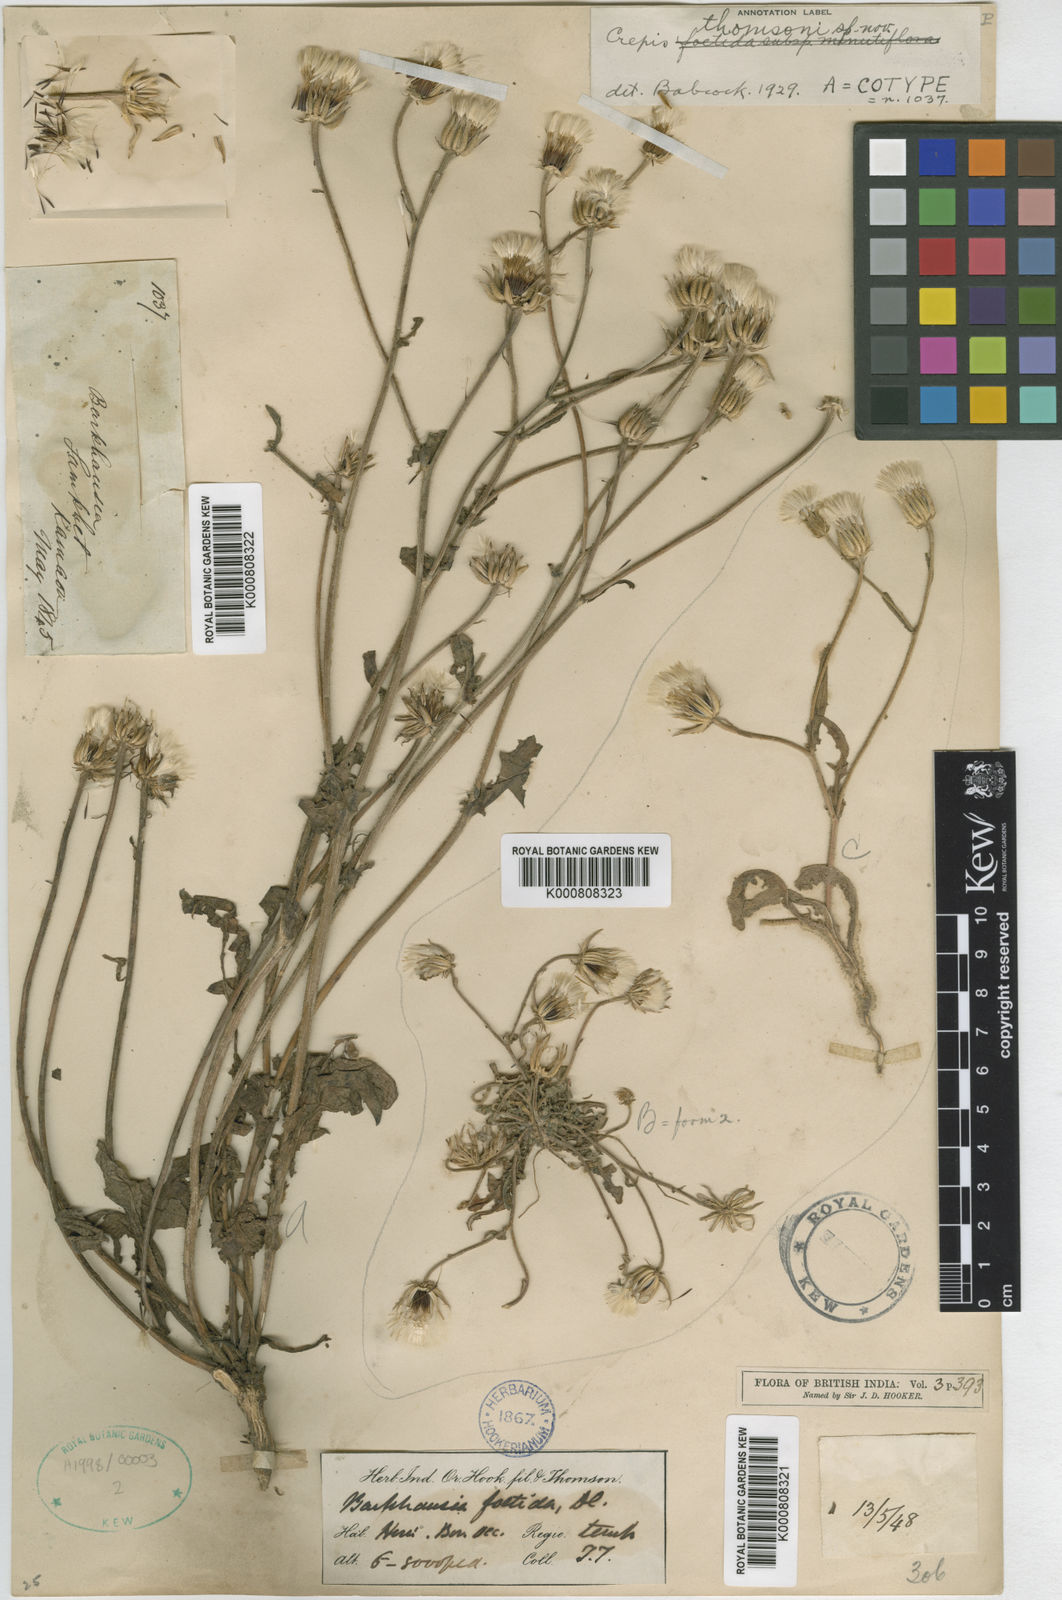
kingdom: Plantae
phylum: Tracheophyta
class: Magnoliopsida
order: Asterales
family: Asteraceae
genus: Crepis
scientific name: Crepis
